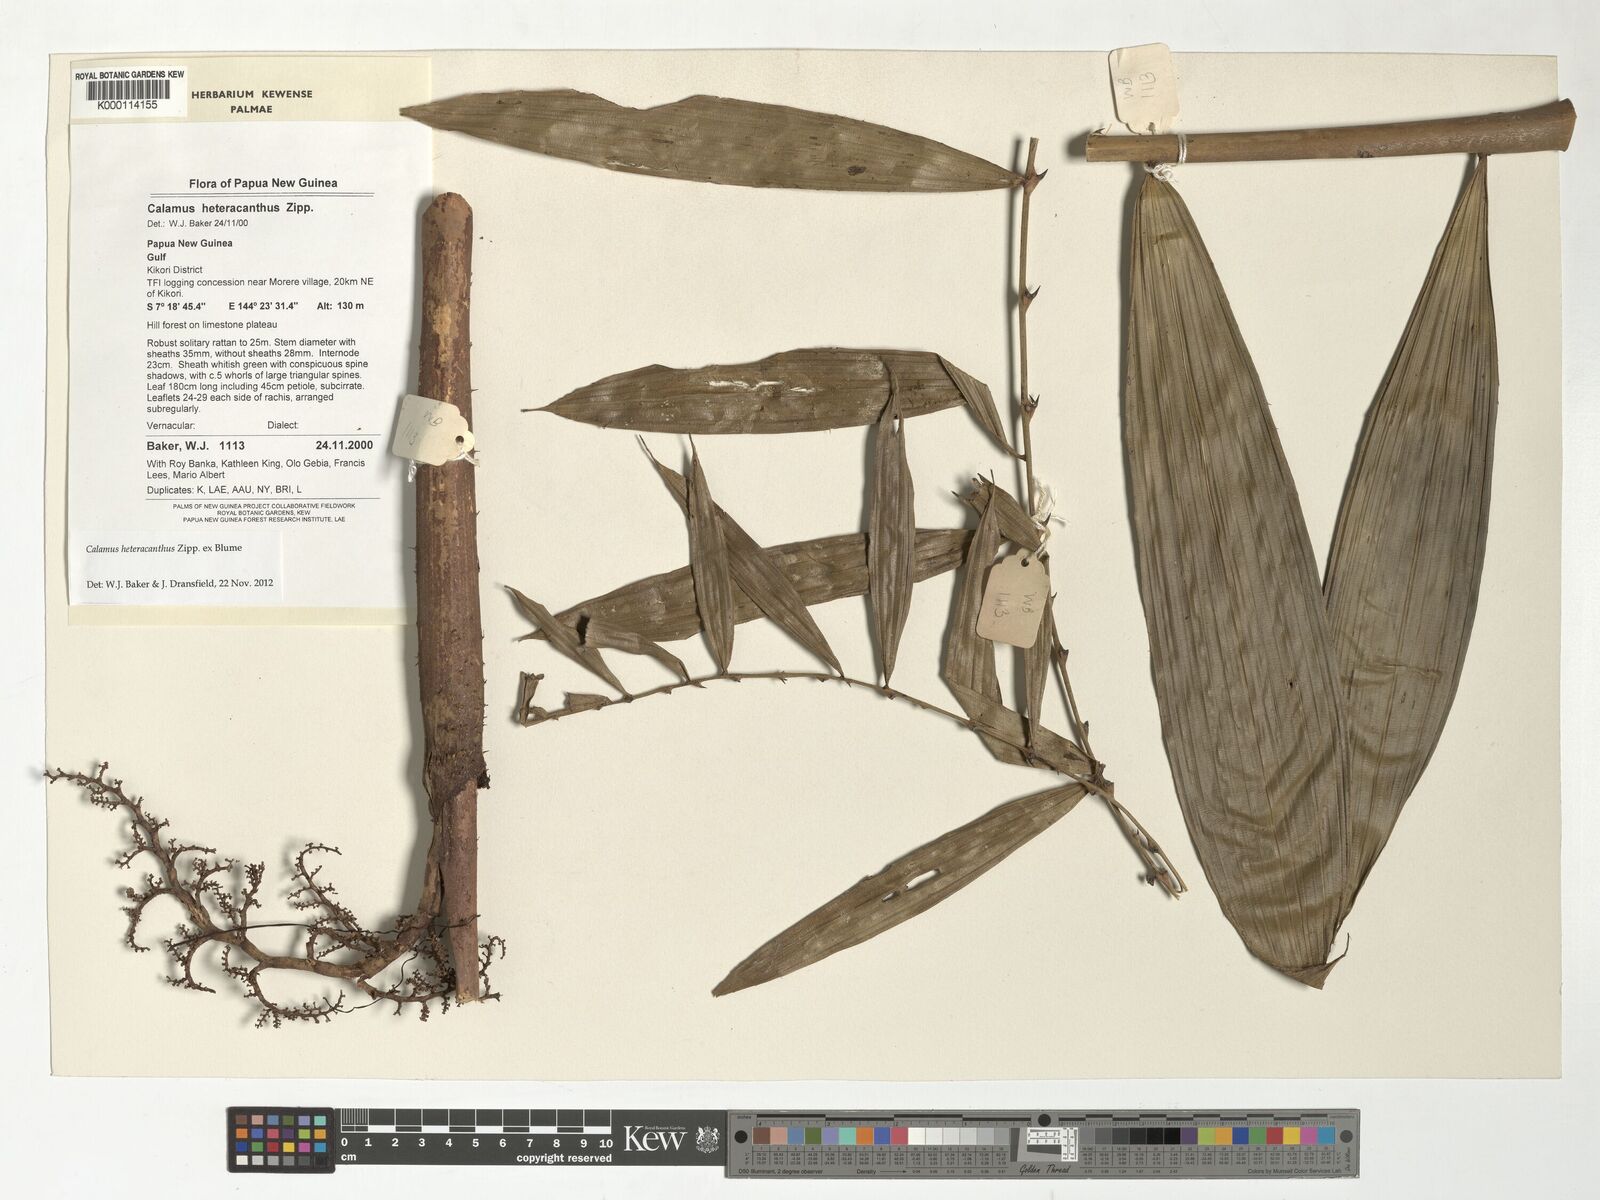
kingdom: Plantae
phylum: Tracheophyta
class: Liliopsida
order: Arecales
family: Arecaceae
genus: Calamus
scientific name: Calamus heteracanthus
